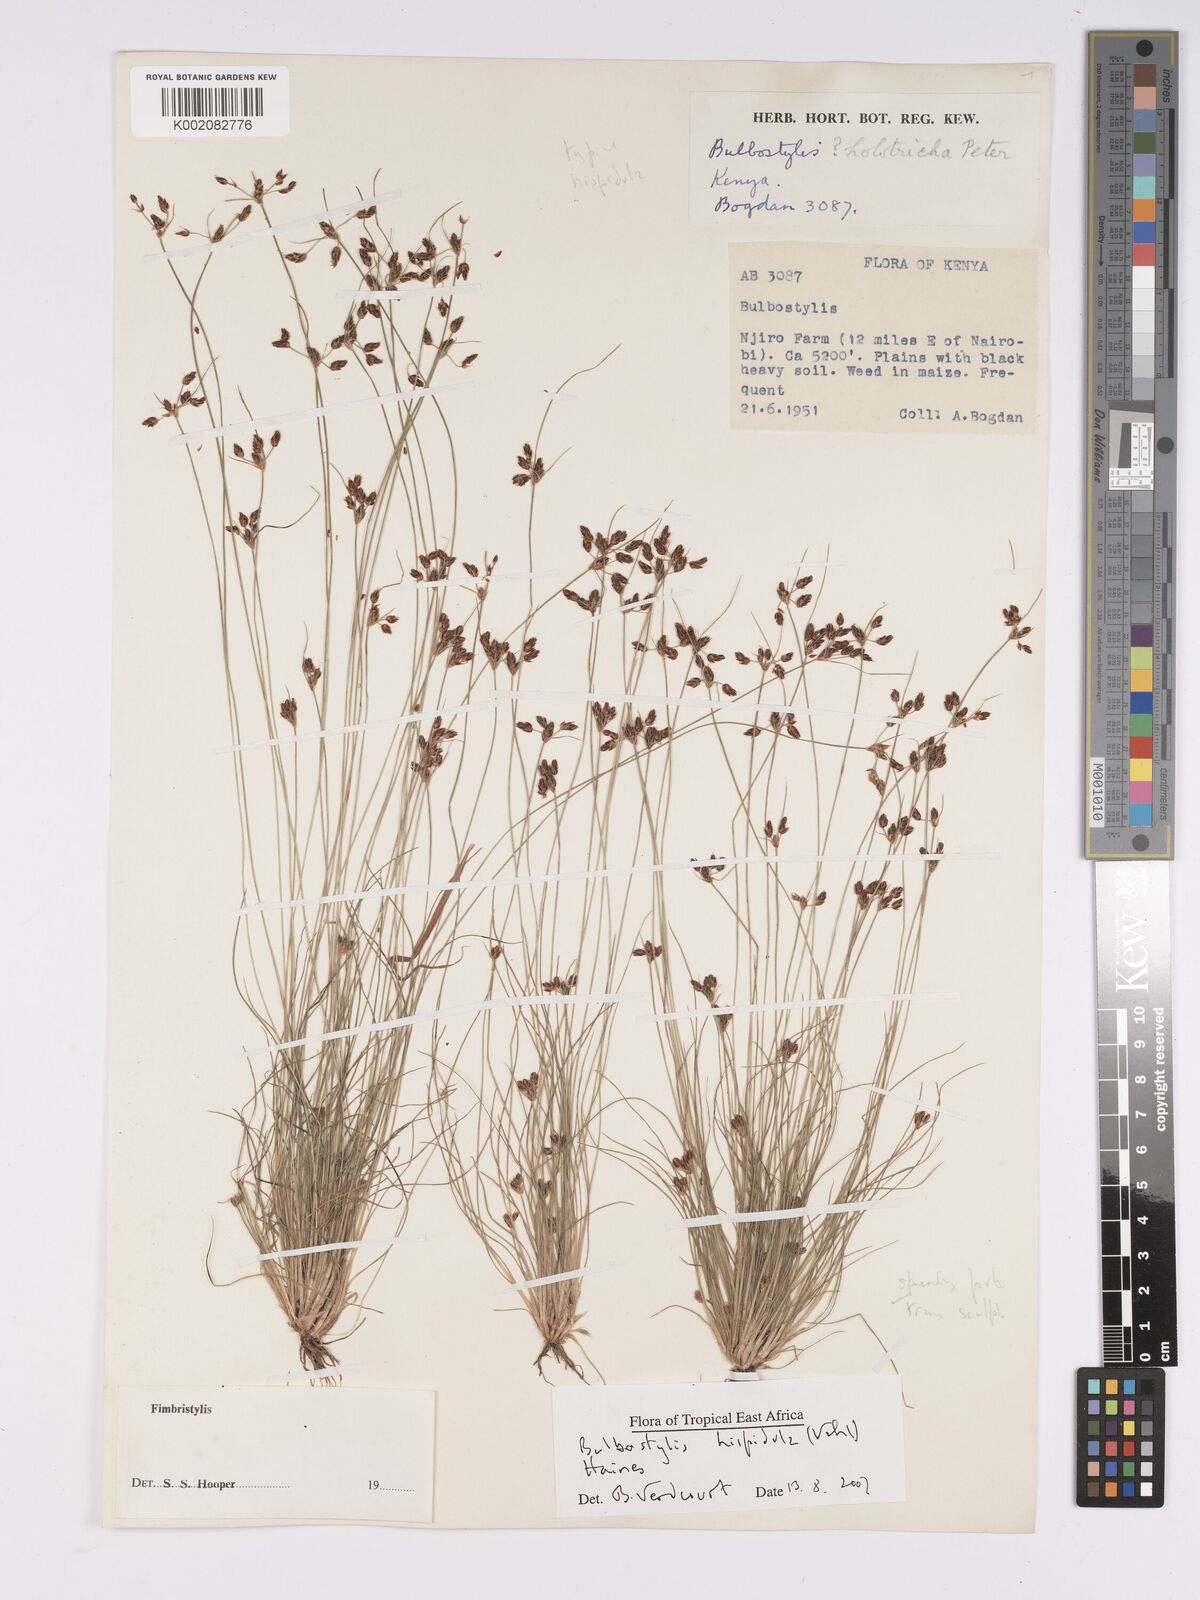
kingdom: Plantae
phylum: Tracheophyta
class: Liliopsida
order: Poales
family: Cyperaceae
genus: Bulbostylis
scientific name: Bulbostylis hispidula
